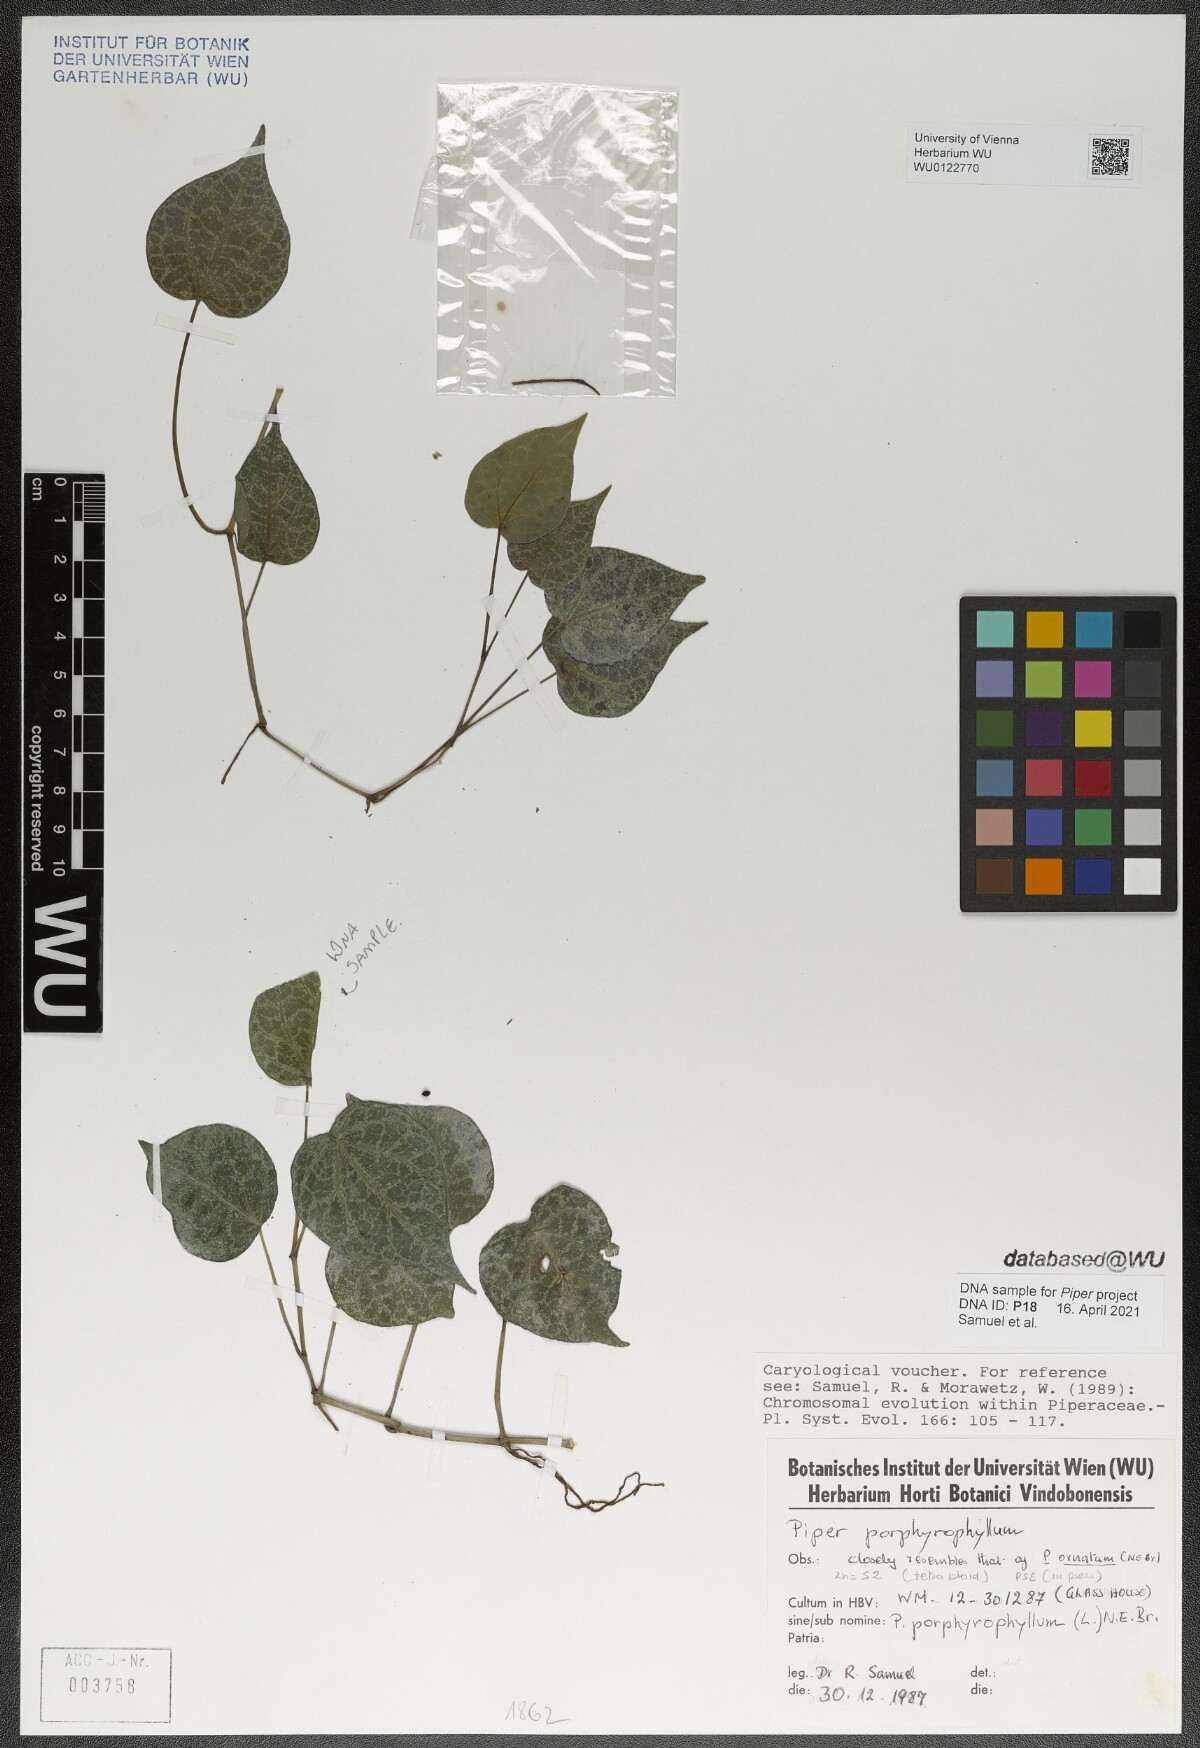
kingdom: Plantae
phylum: Tracheophyta
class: Magnoliopsida
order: Piperales
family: Piperaceae
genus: Piper
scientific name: Piper porphyrophyllum
